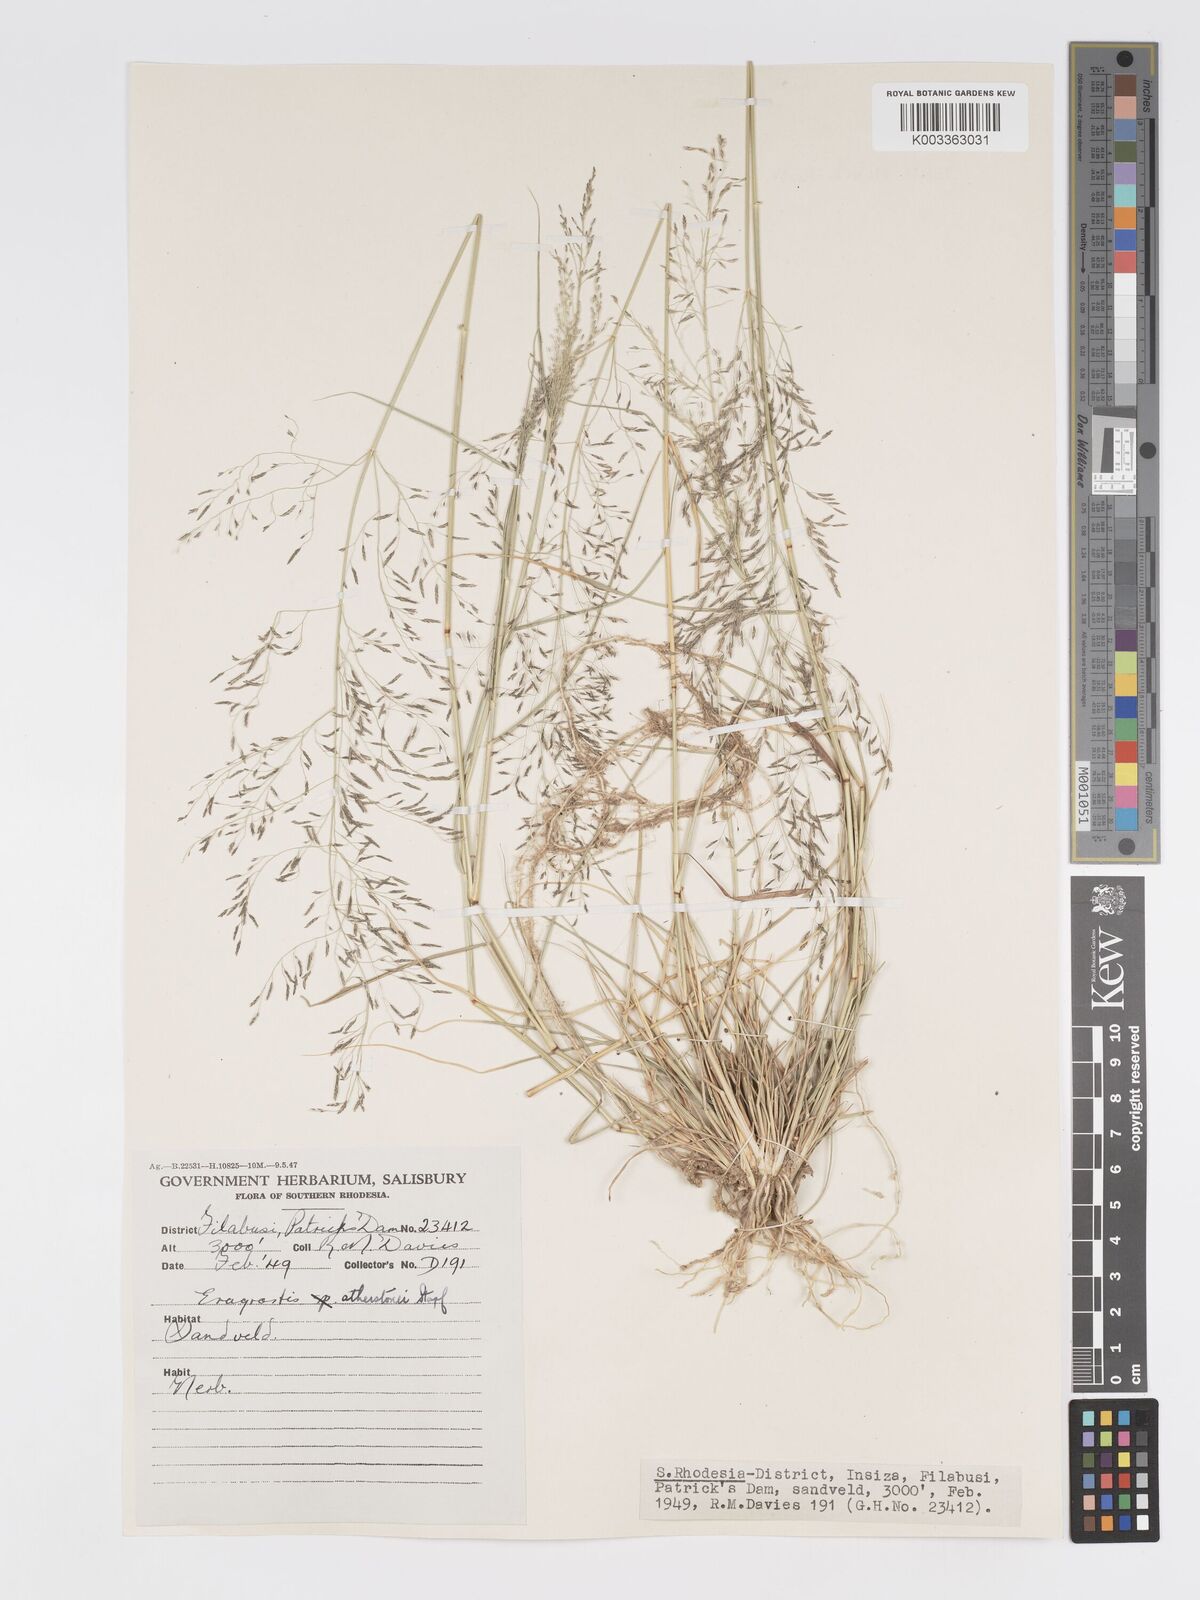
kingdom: Plantae
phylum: Tracheophyta
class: Liliopsida
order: Poales
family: Poaceae
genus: Eragrostis
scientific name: Eragrostis cylindriflora
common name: Cylinderflower lovegrass
